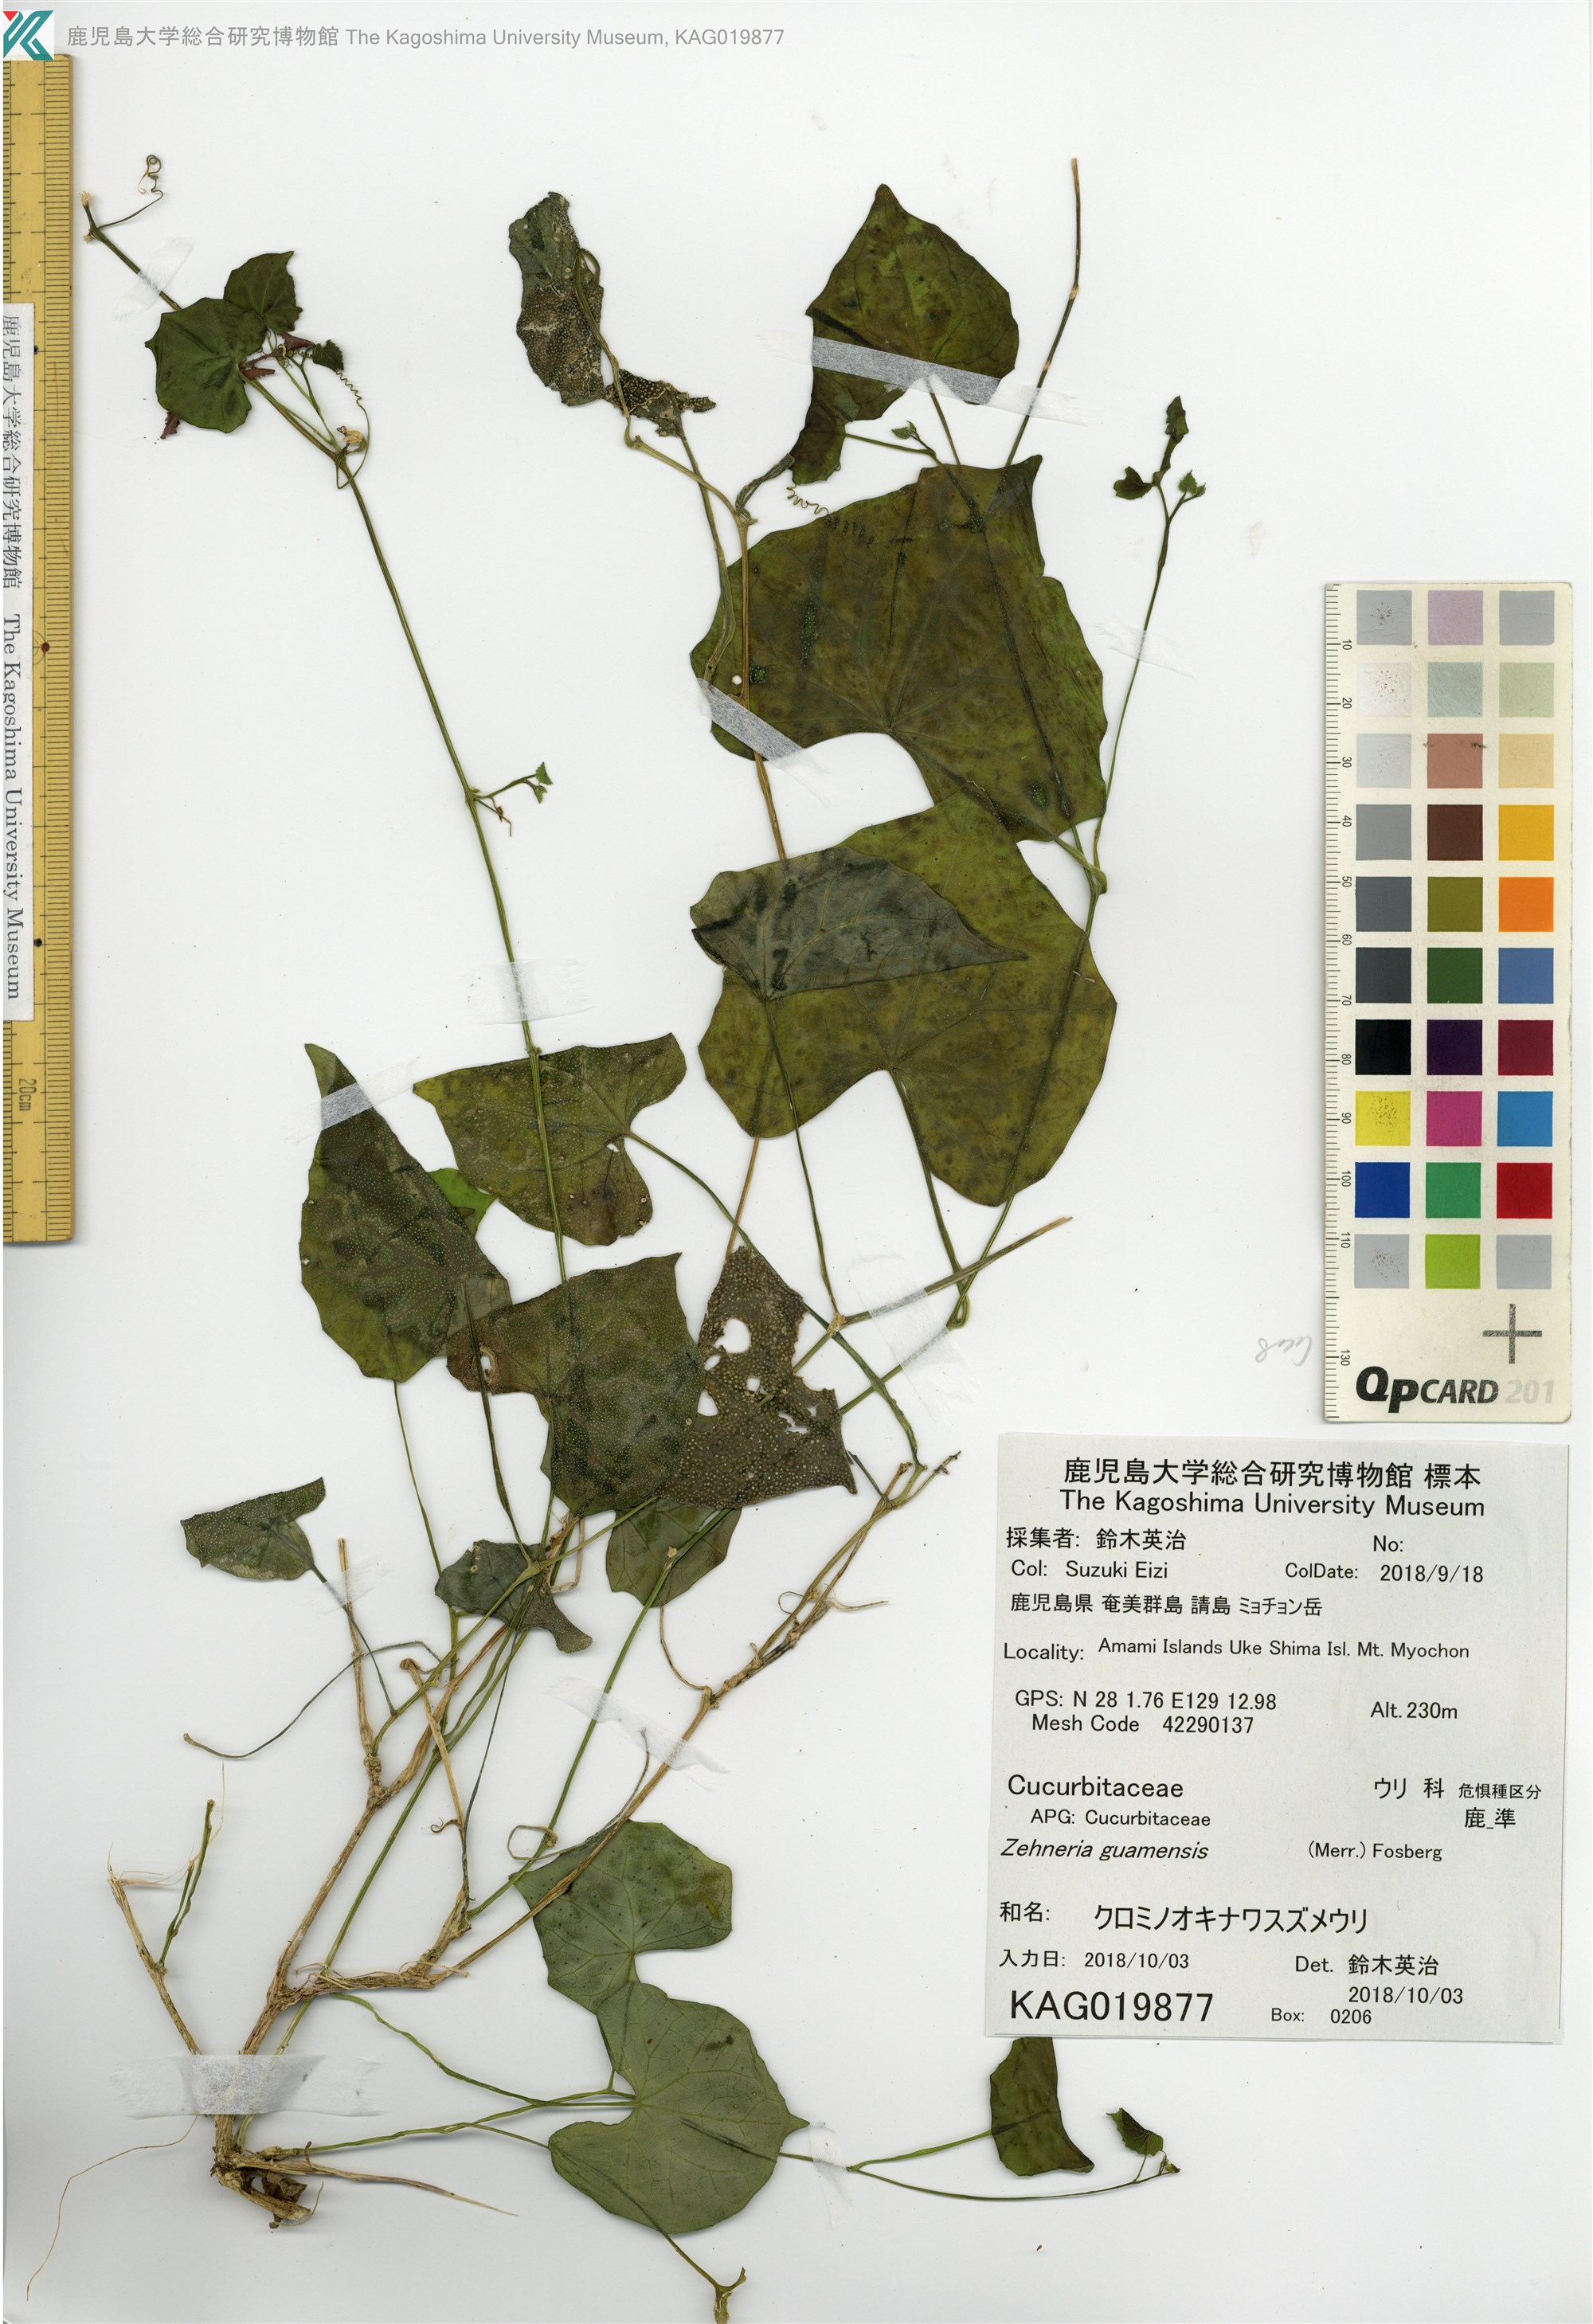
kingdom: Plantae
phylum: Tracheophyta
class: Magnoliopsida
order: Cucurbitales
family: Cucurbitaceae
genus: Zehneria
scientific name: Zehneria guamensis
